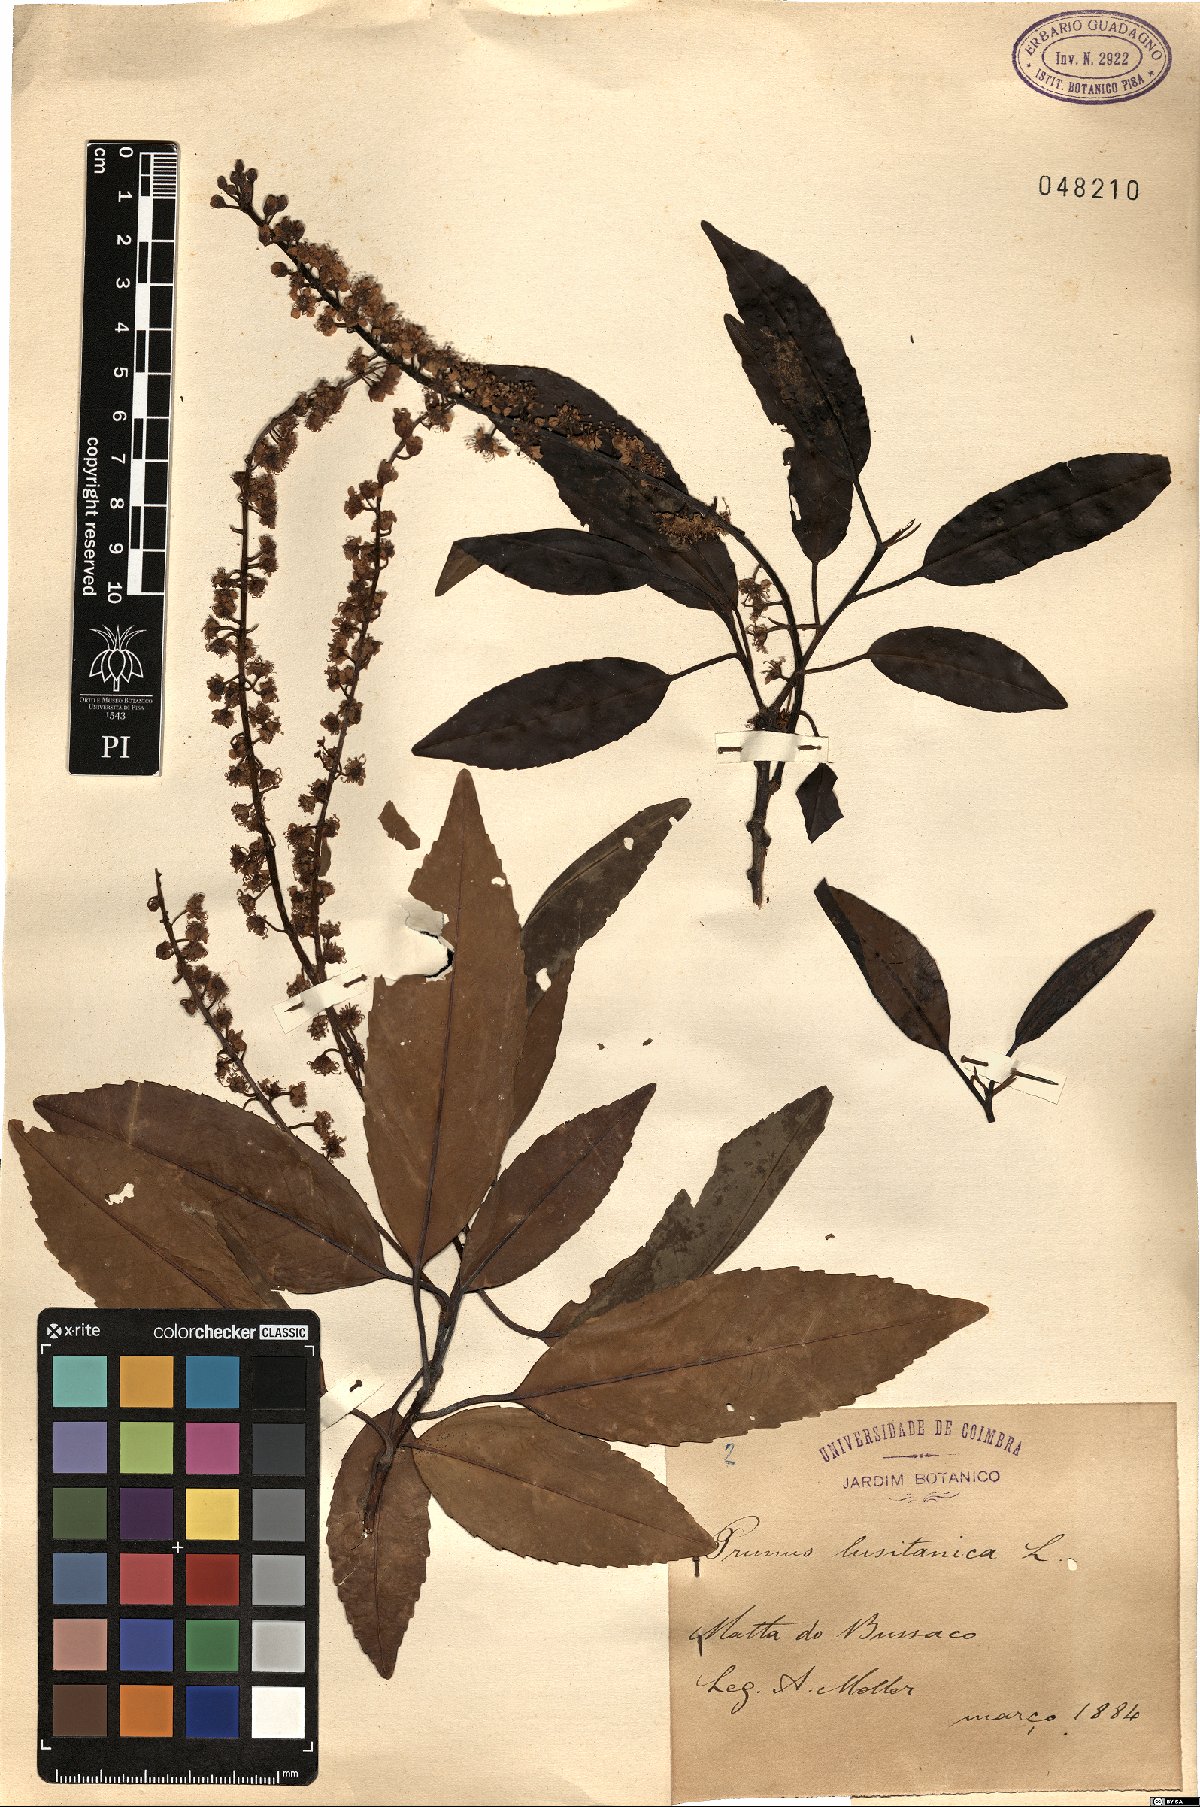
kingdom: Plantae
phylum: Tracheophyta
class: Magnoliopsida
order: Rosales
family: Rosaceae
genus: Prunus
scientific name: Prunus lusitanica
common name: Portugal laurel
